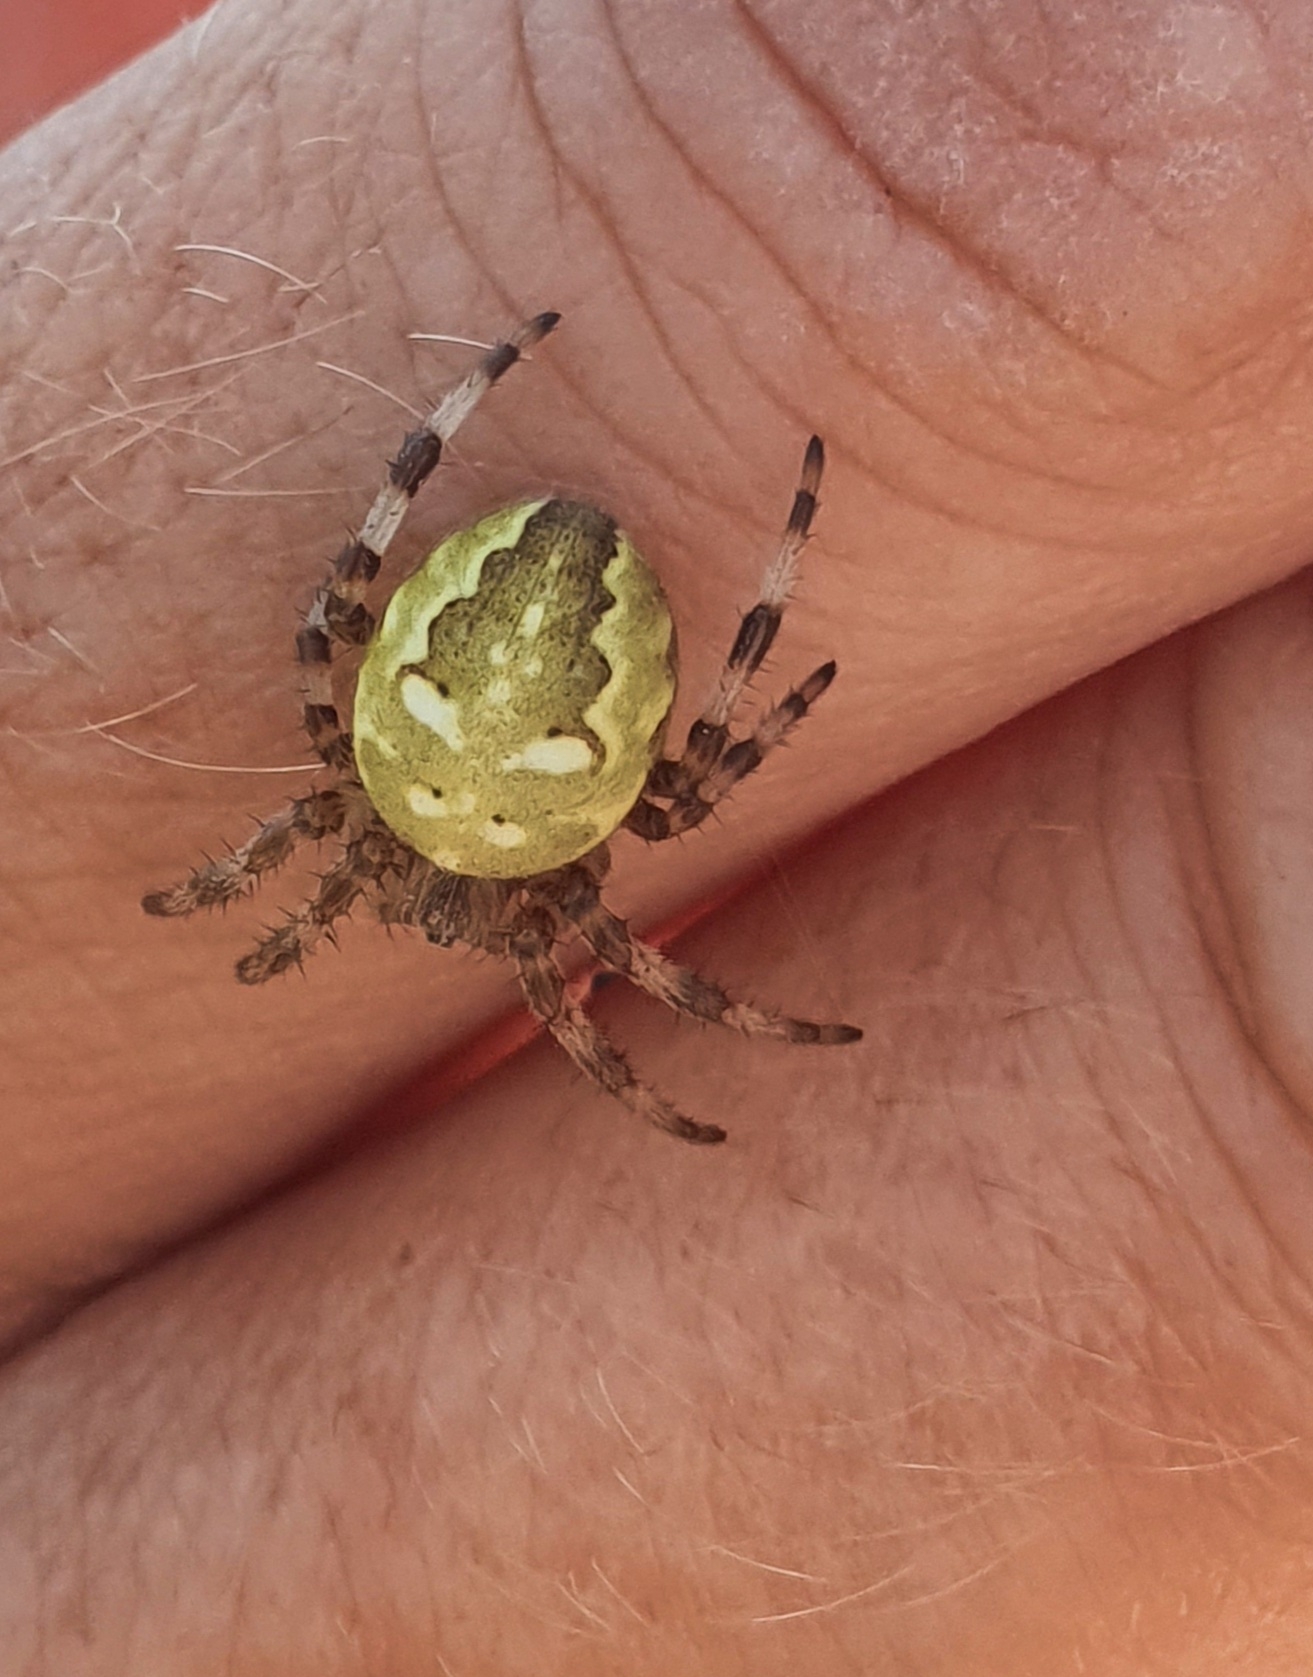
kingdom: Animalia
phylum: Arthropoda
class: Arachnida
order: Araneae
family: Araneidae
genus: Araneus
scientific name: Araneus quadratus
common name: Kvadratedderkop
